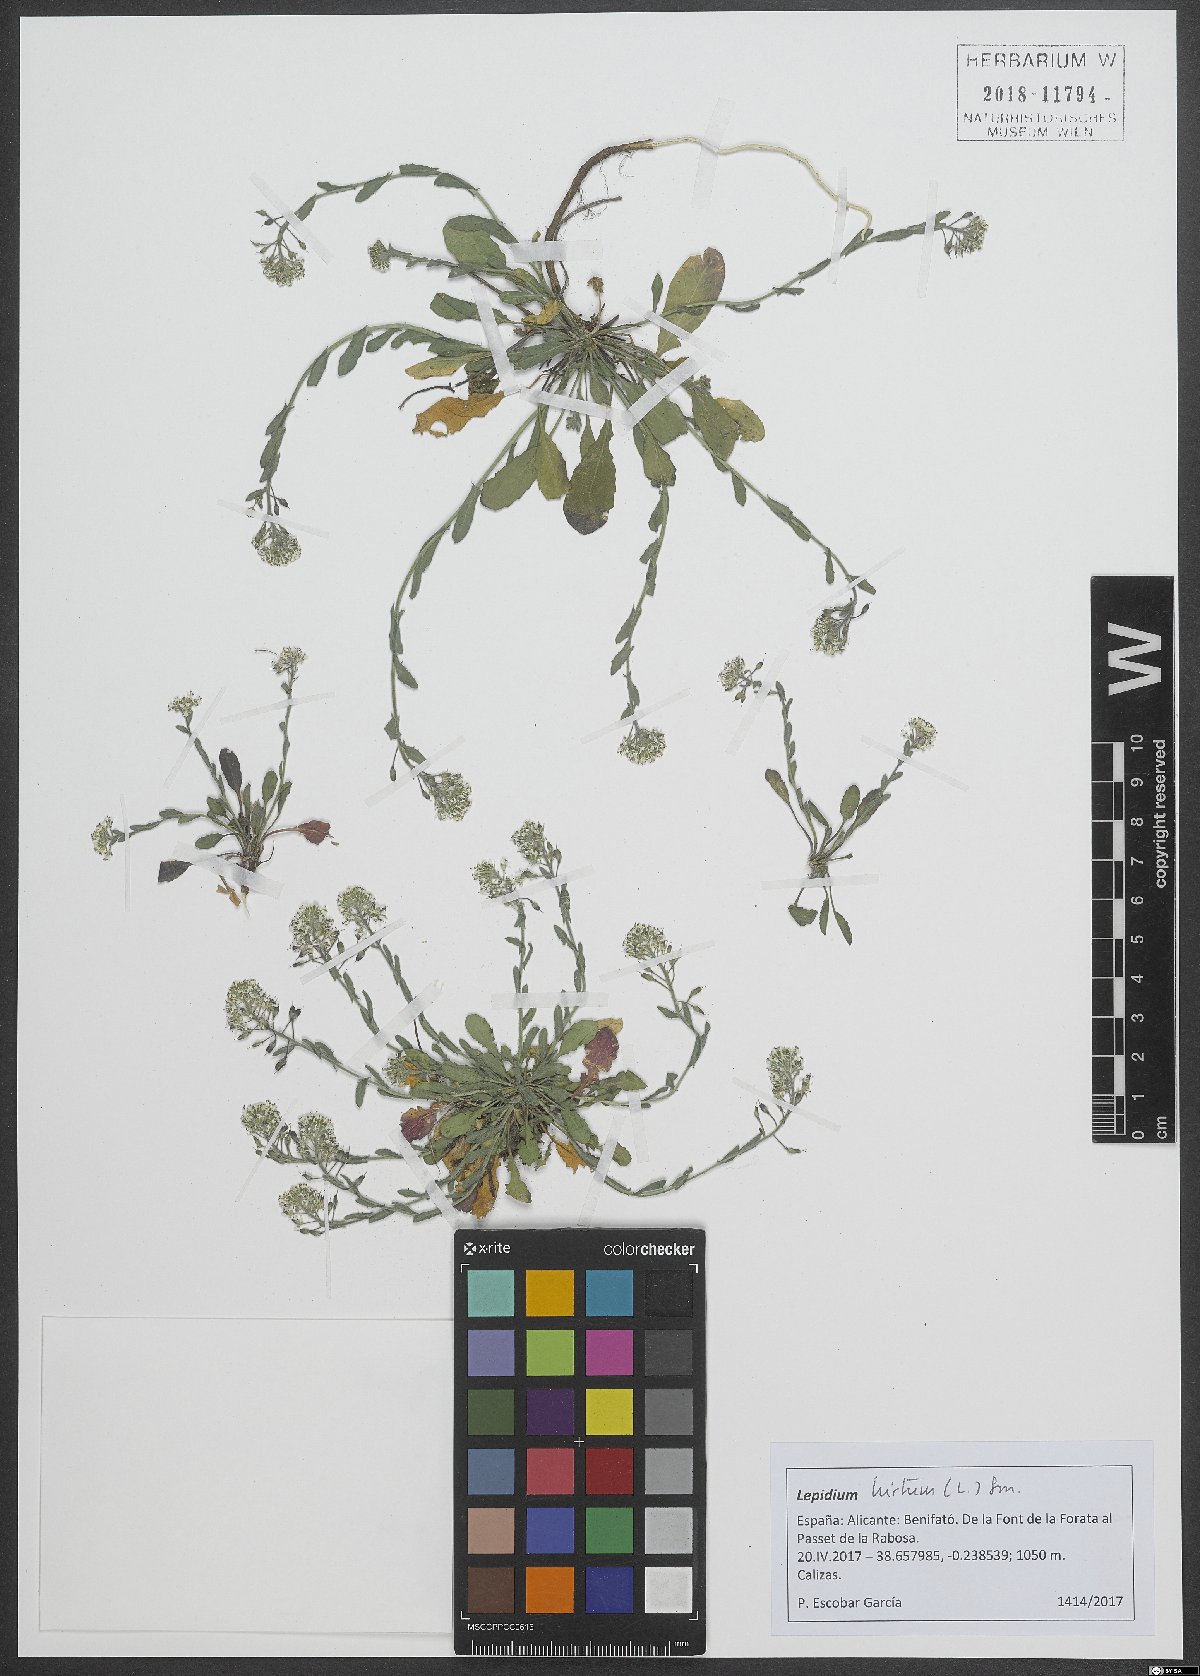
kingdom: Plantae
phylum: Tracheophyta
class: Magnoliopsida
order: Brassicales
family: Brassicaceae
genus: Lepidium
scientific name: Lepidium hirtum
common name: Mediterranean pepperweed
